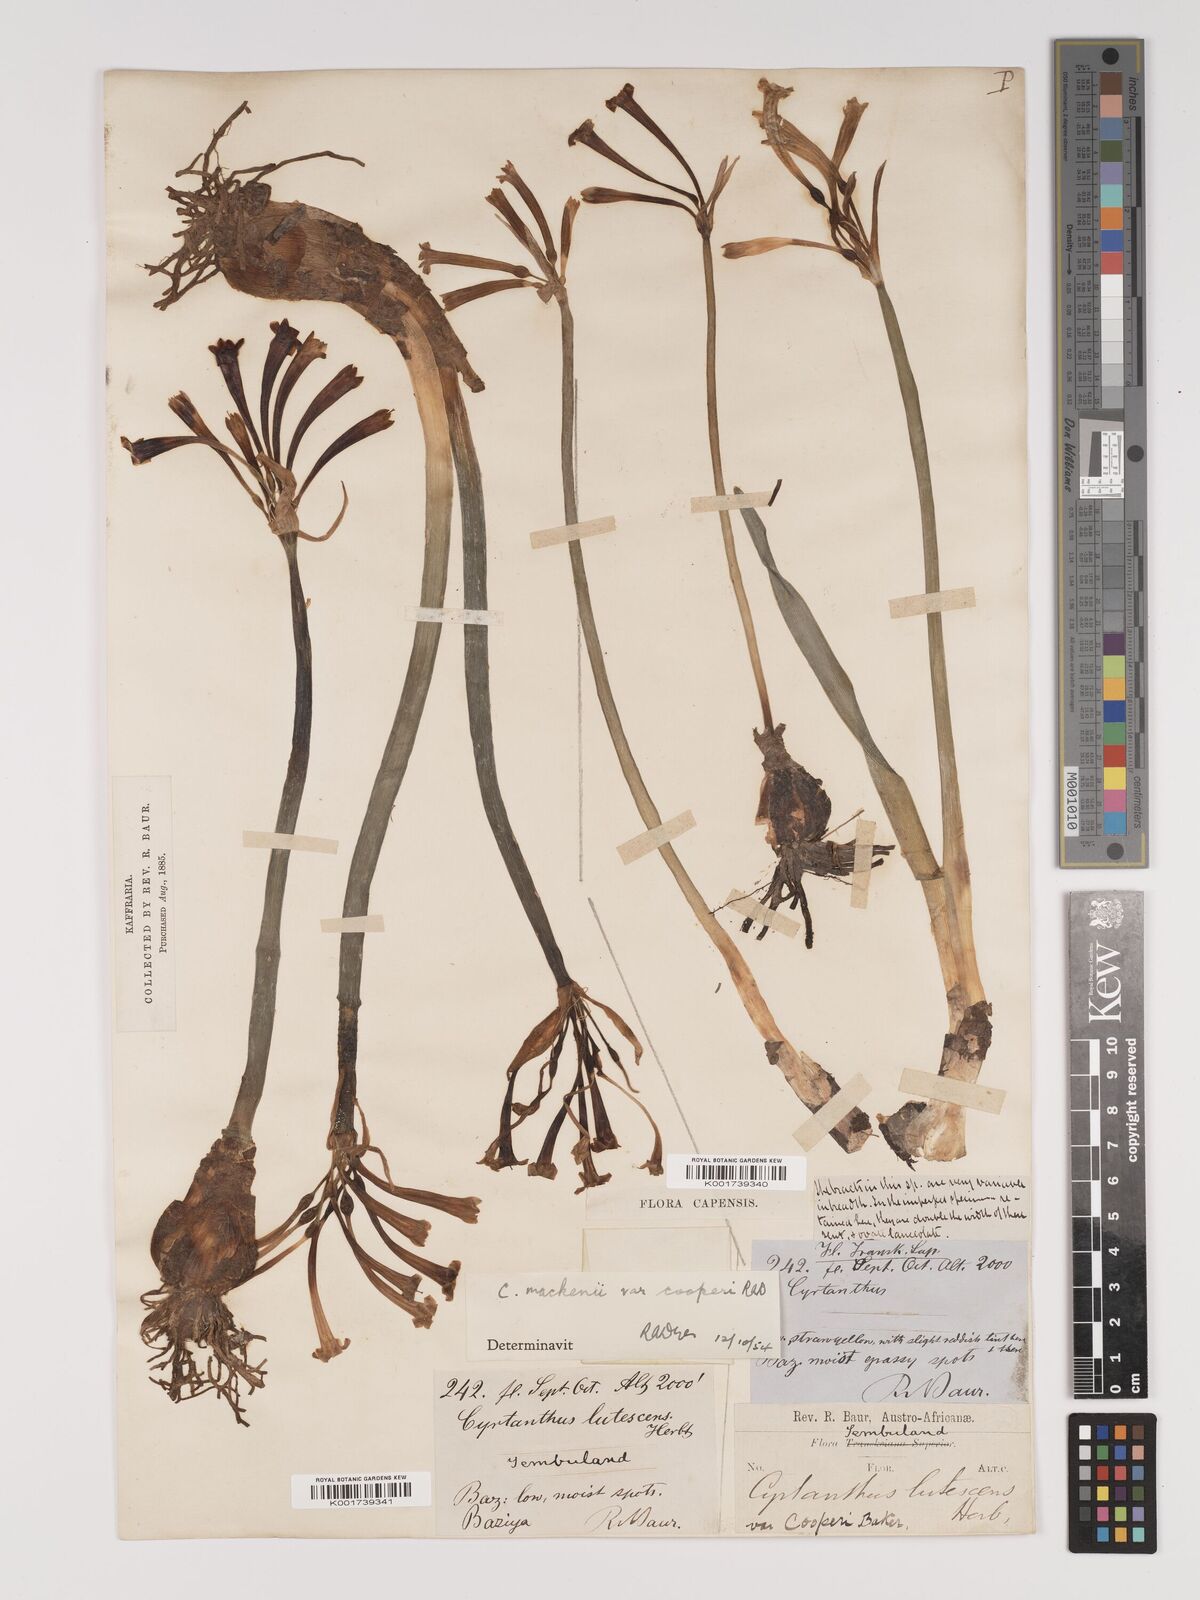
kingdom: Plantae
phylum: Tracheophyta
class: Liliopsida
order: Asparagales
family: Amaryllidaceae
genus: Cyrtanthus
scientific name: Cyrtanthus mackenii
